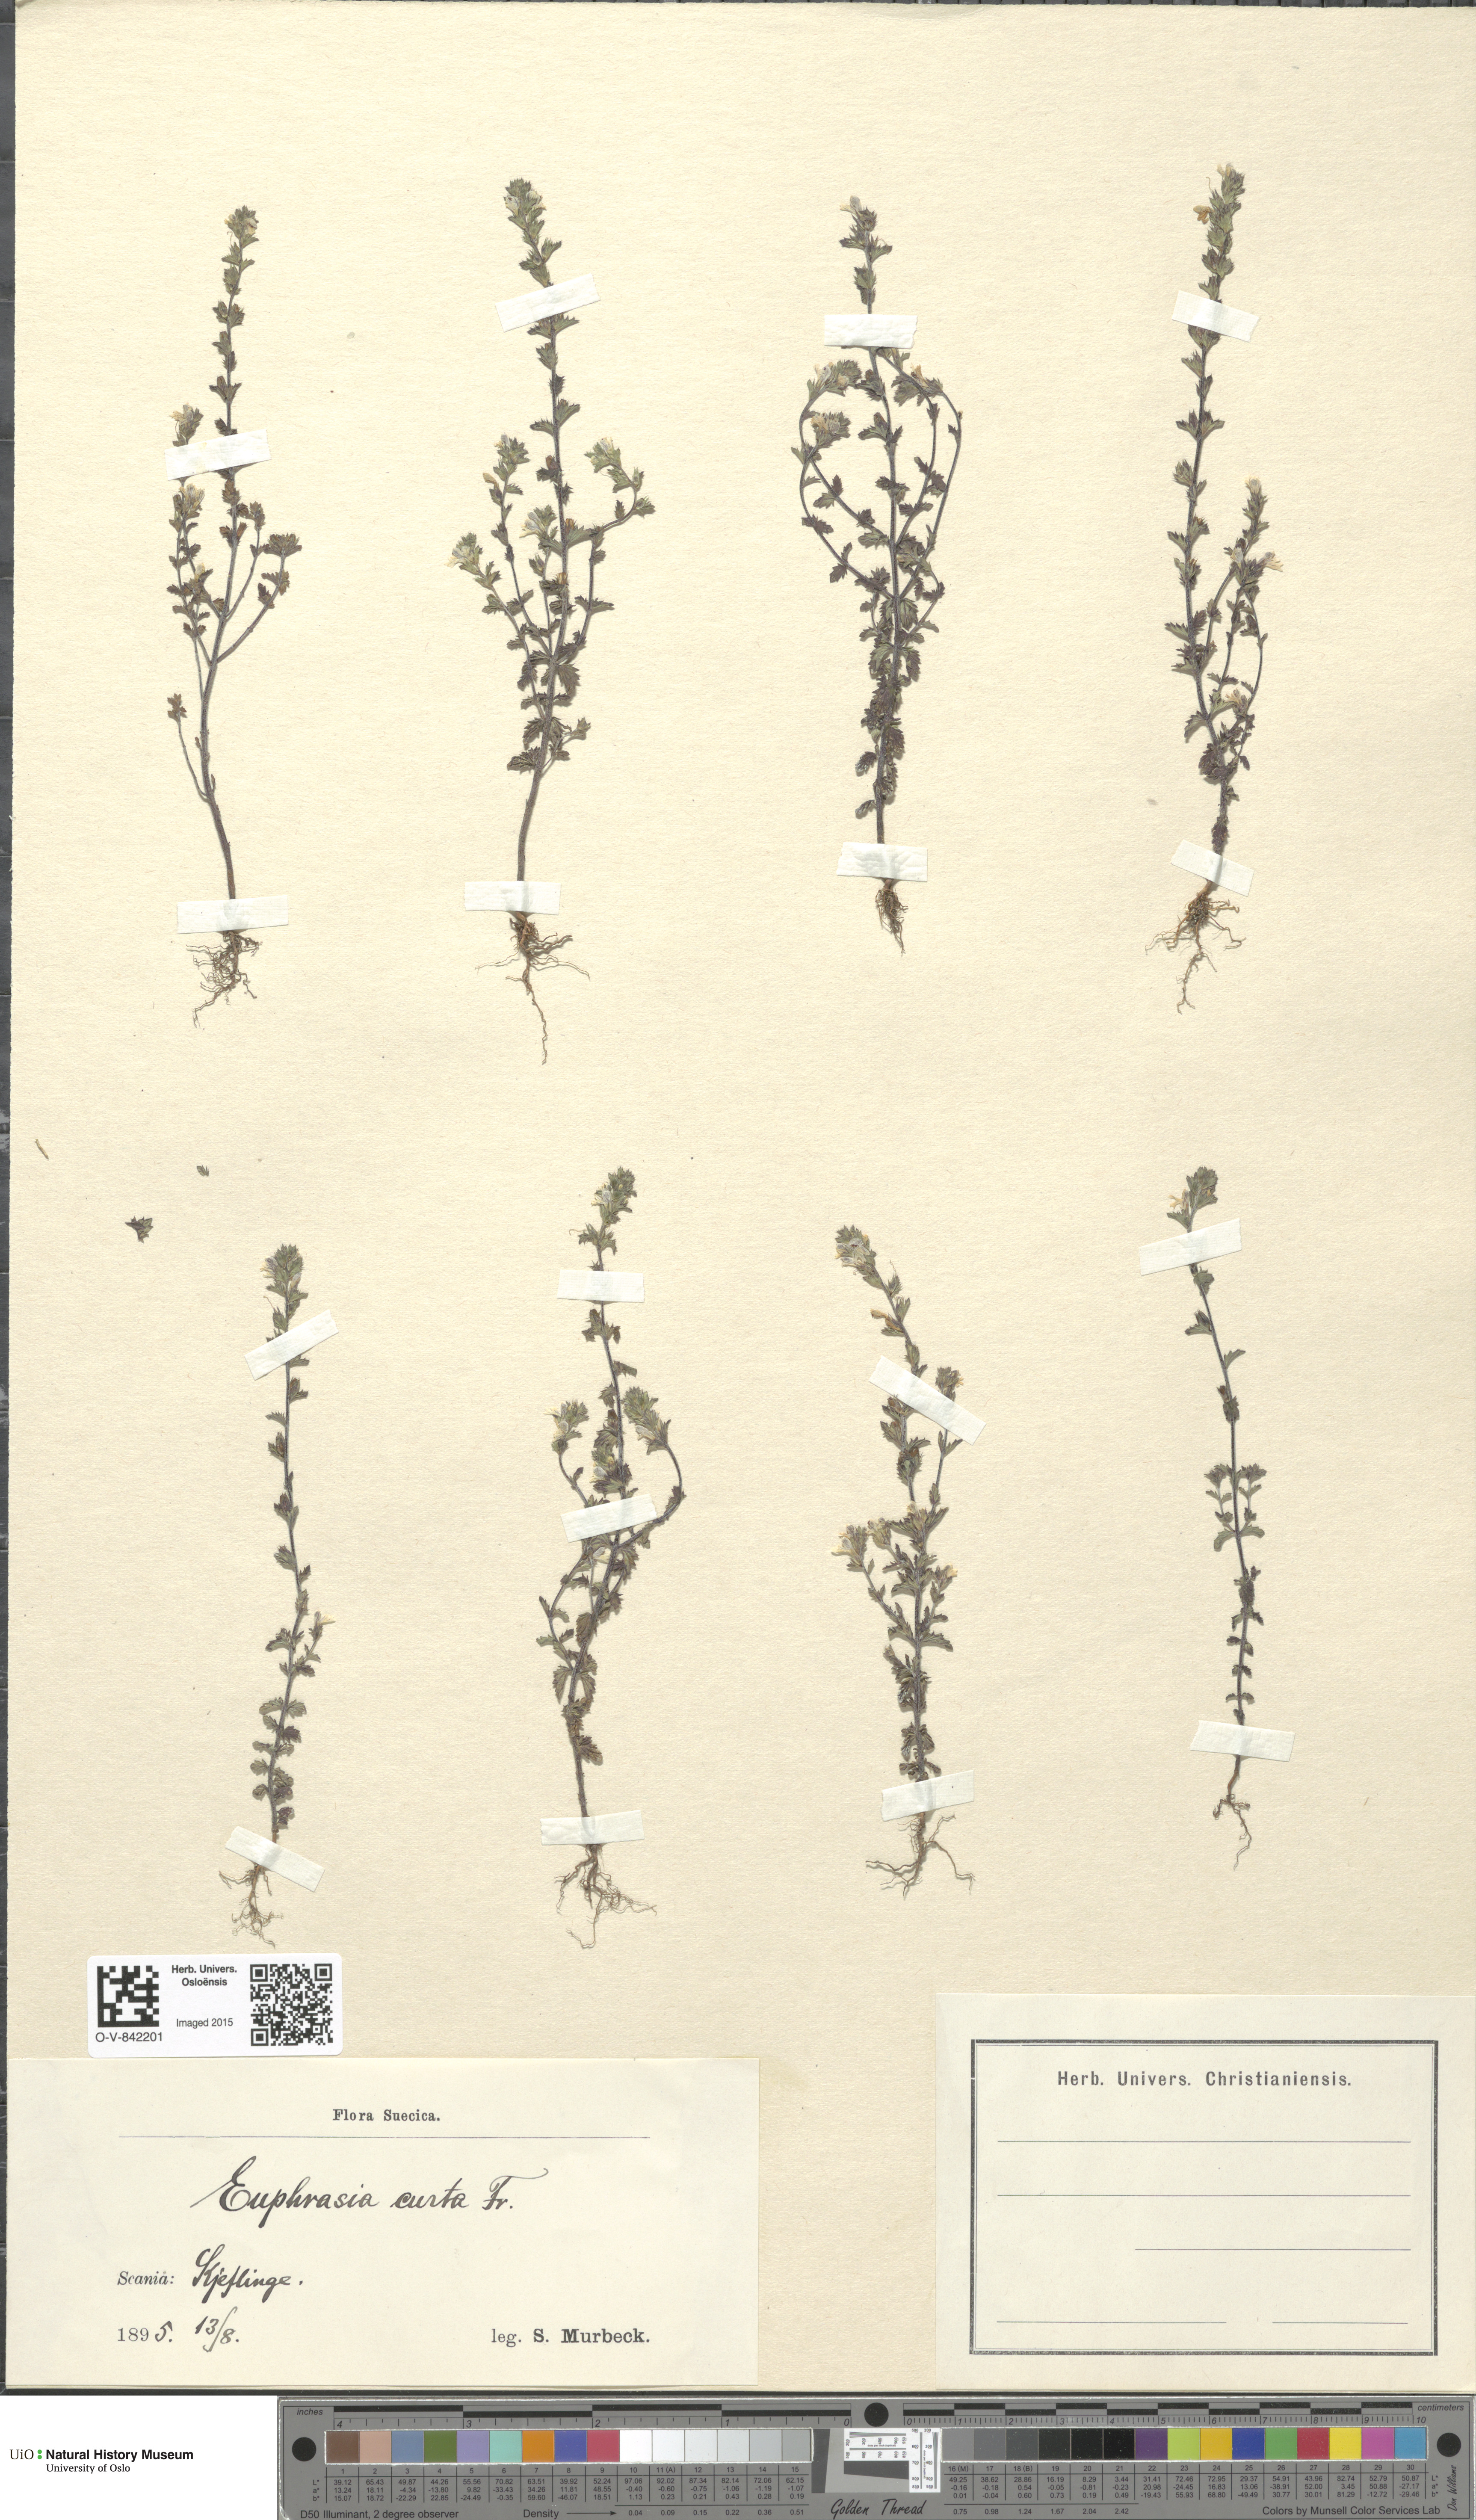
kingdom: Plantae
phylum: Tracheophyta
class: Magnoliopsida
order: Lamiales
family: Orobanchaceae
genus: Euphrasia
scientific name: Euphrasia micrantha
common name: Northern eyebright
